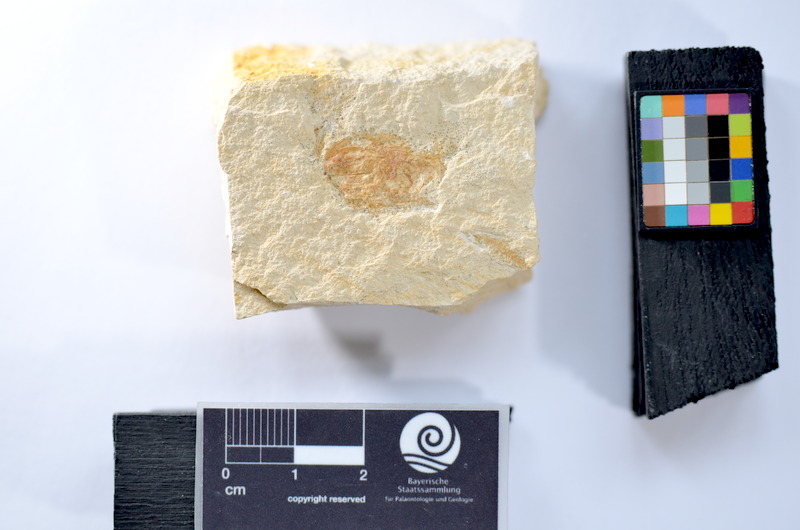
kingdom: Animalia
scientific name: Animalia
